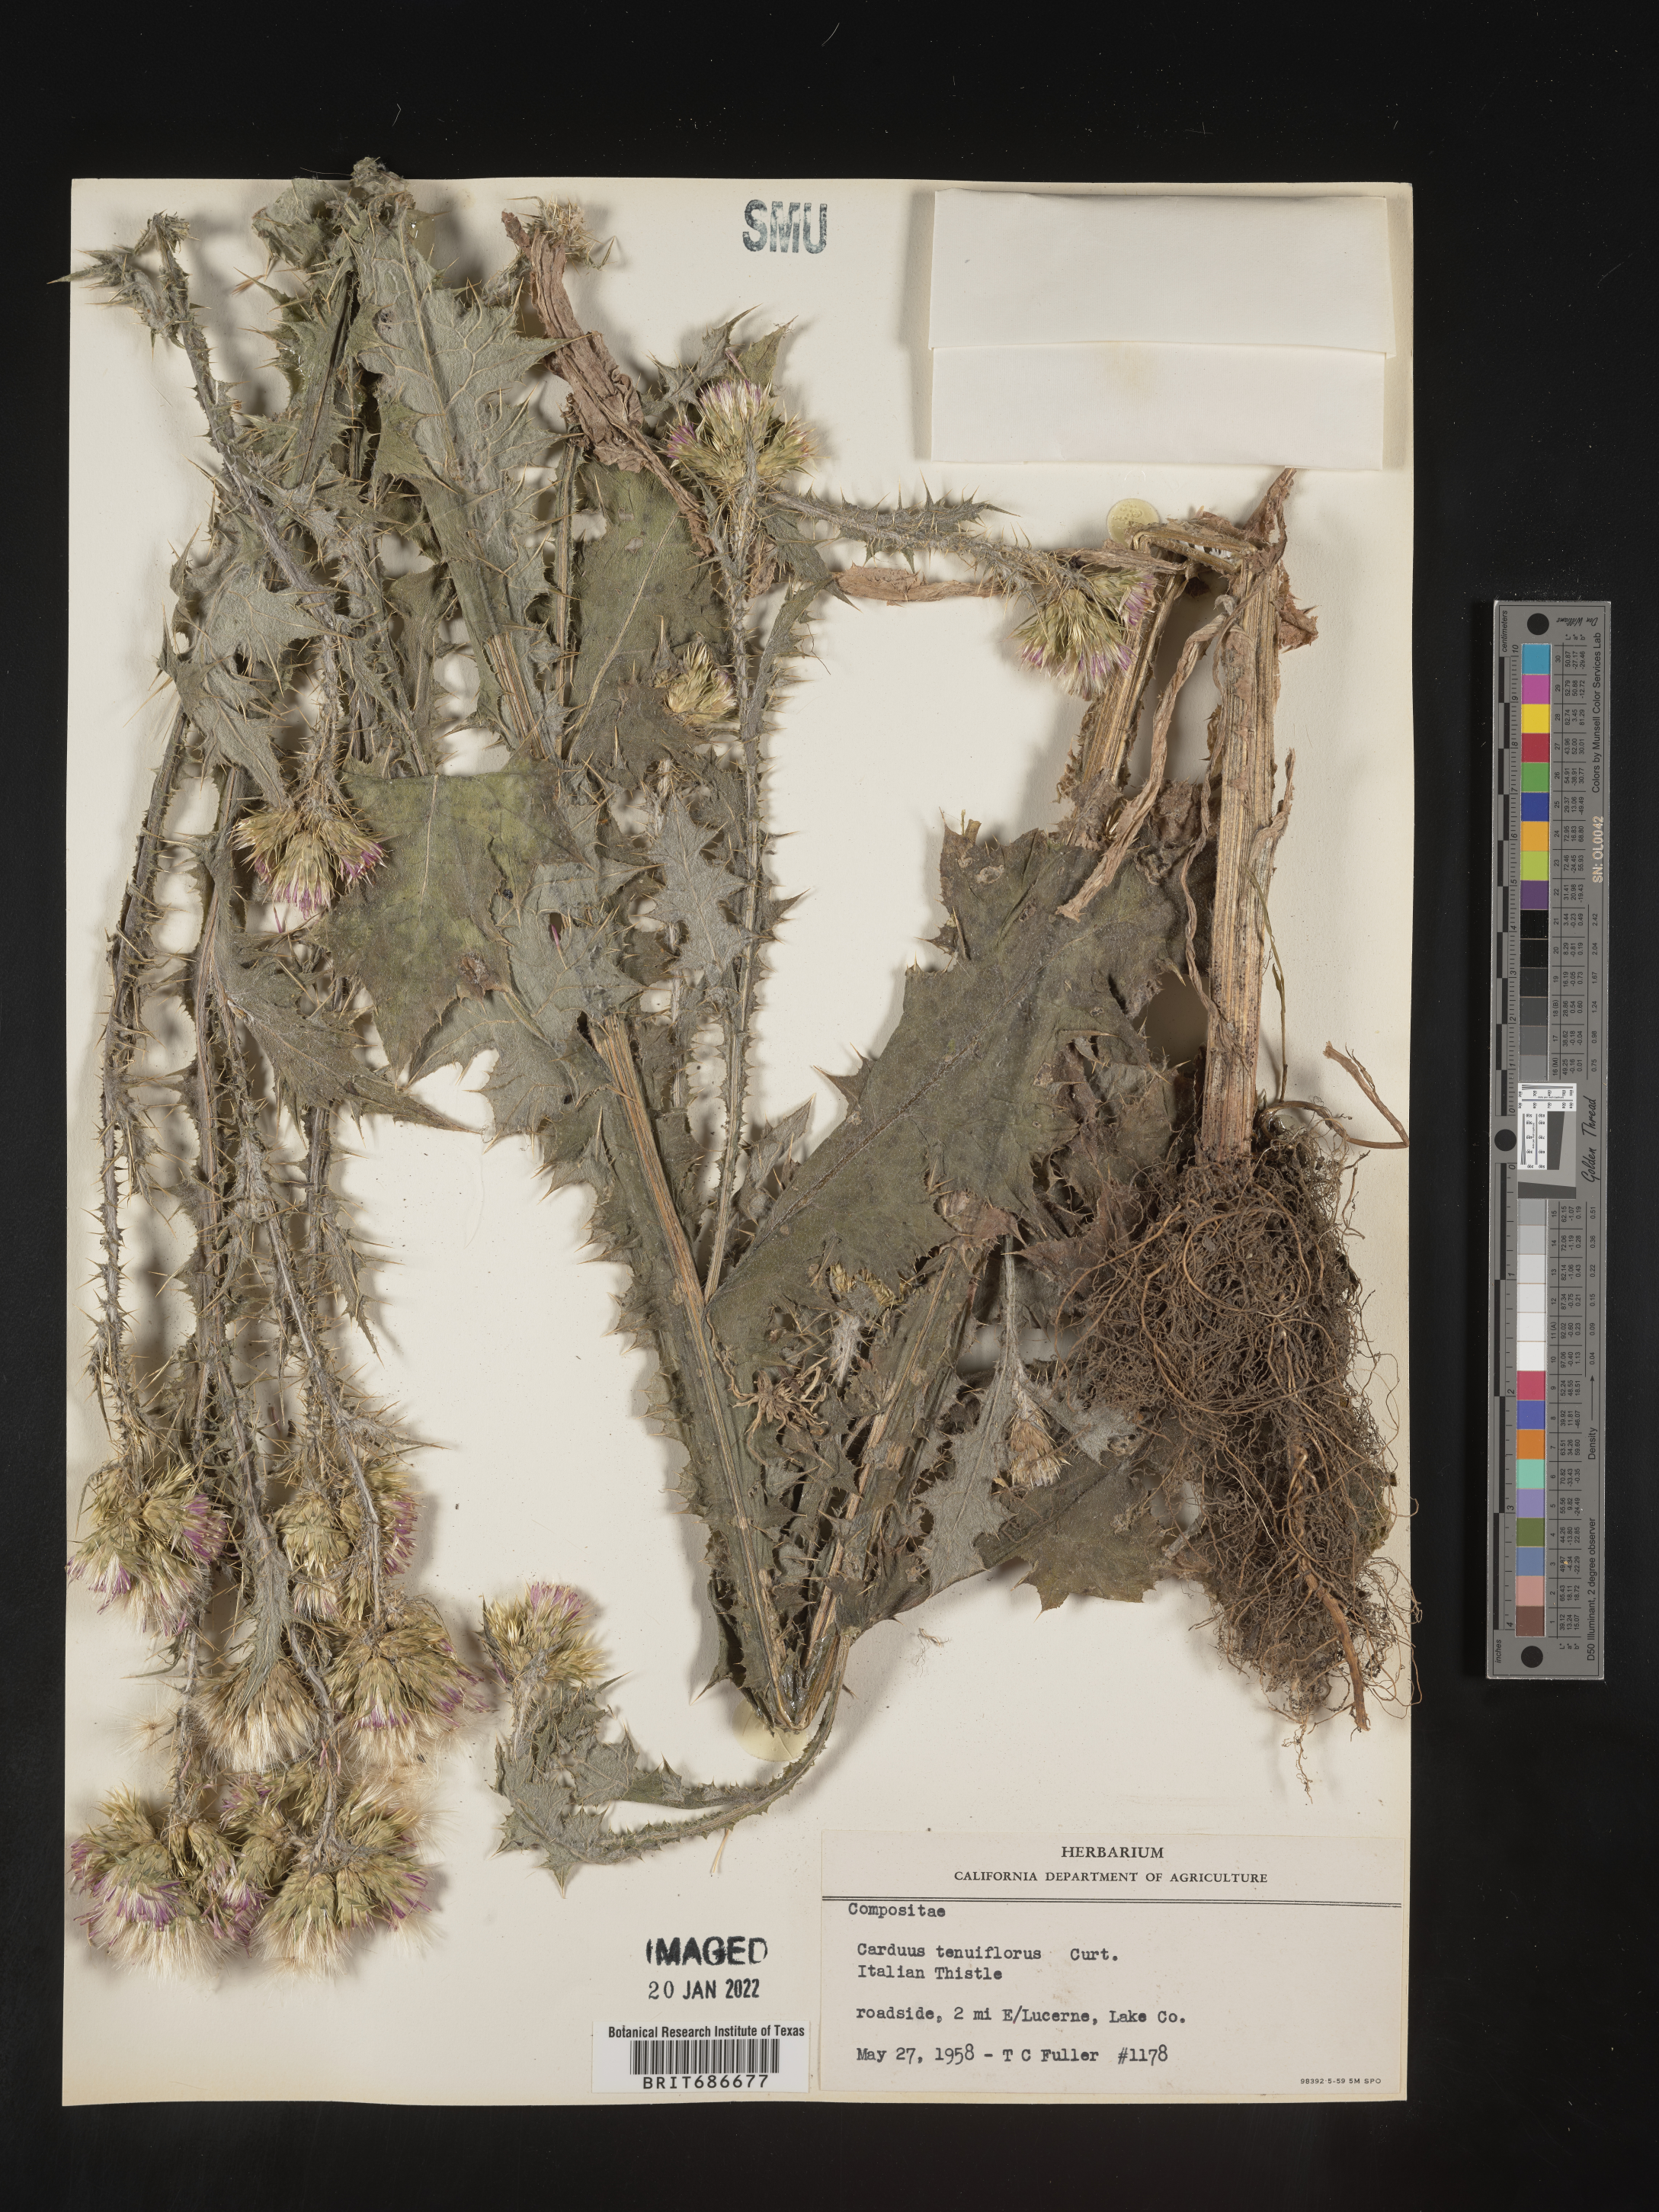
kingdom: Plantae
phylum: Tracheophyta
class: Magnoliopsida
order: Asterales
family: Asteraceae
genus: Carduus
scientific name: Carduus tenuiflorus
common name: Slender thistle
